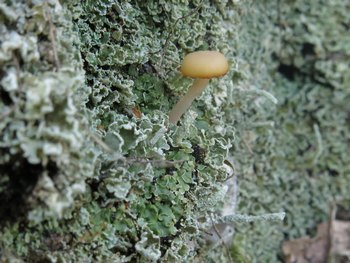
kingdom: Fungi
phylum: Basidiomycota
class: Agaricomycetes
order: Agaricales
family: Hygrophoraceae
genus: Lichenomphalia
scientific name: Lichenomphalia hudsoniana
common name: thallus-lavhat
